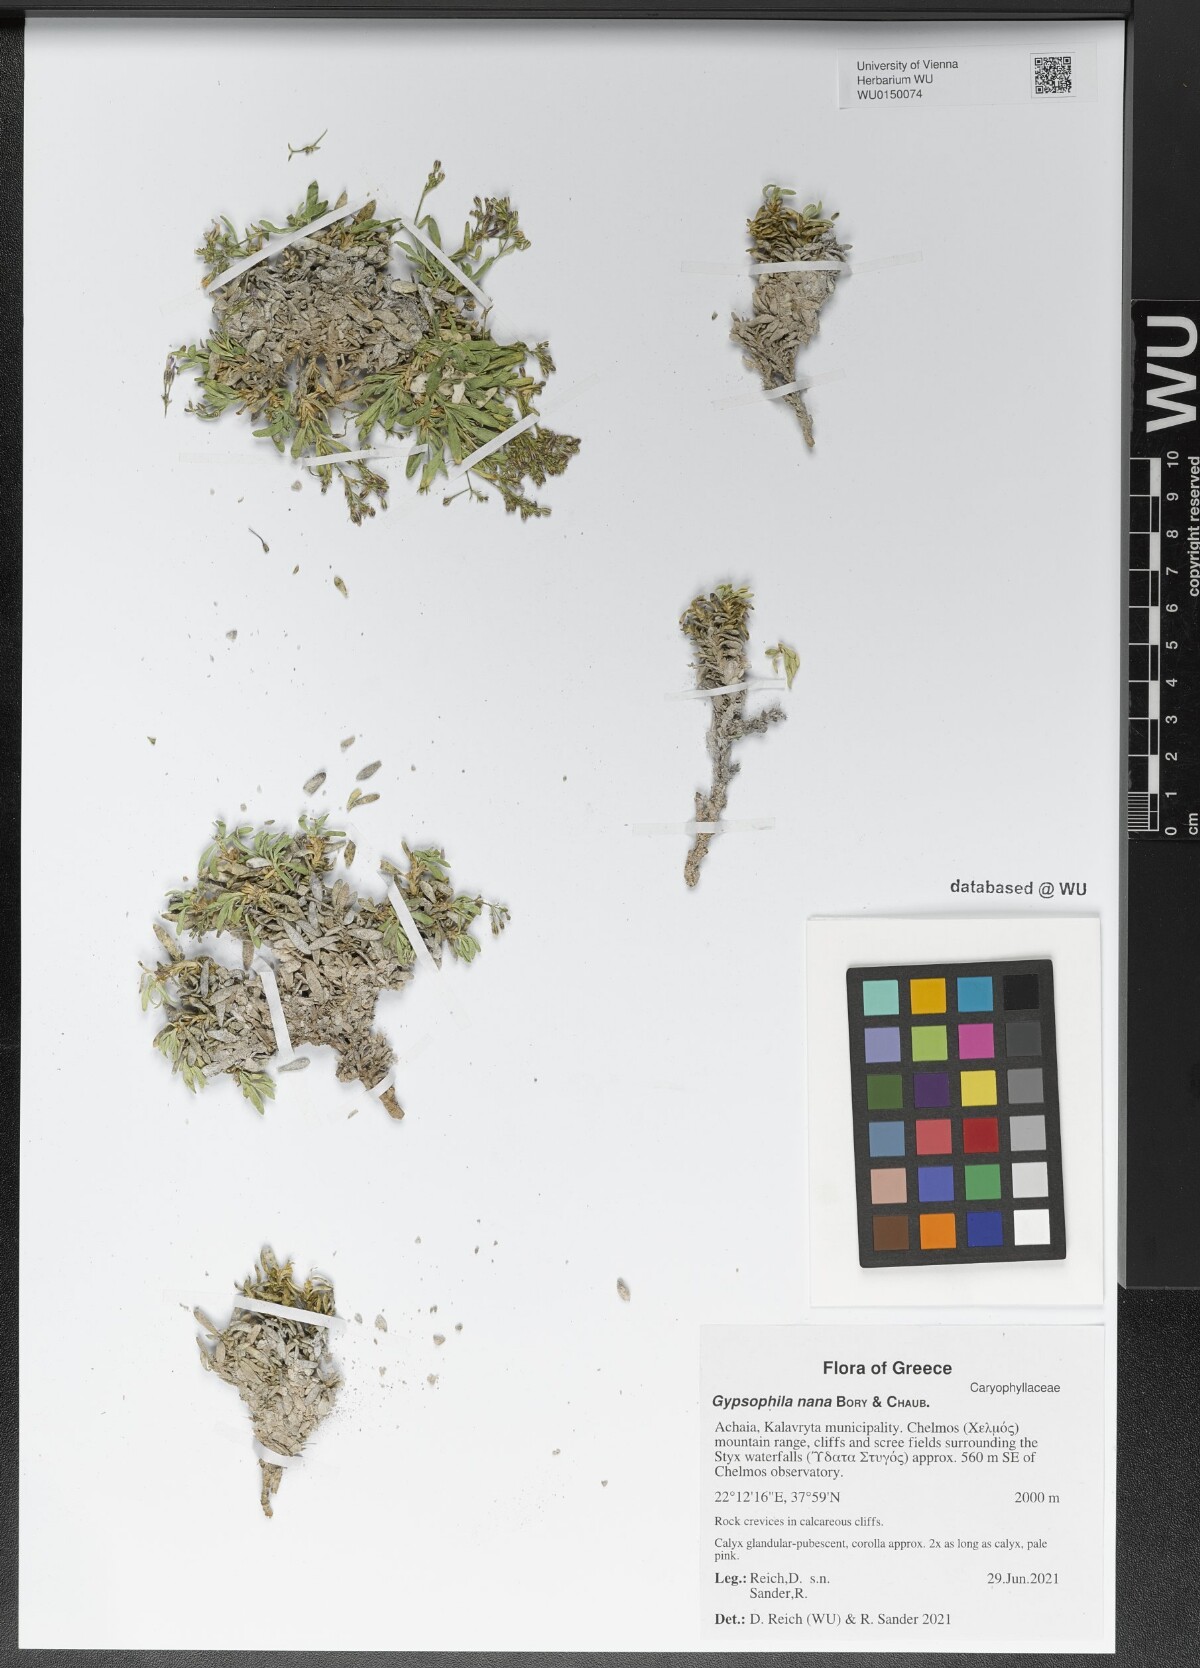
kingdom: Plantae
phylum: Tracheophyta
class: Magnoliopsida
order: Caryophyllales
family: Caryophyllaceae
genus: Gypsophila
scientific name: Gypsophila nana
